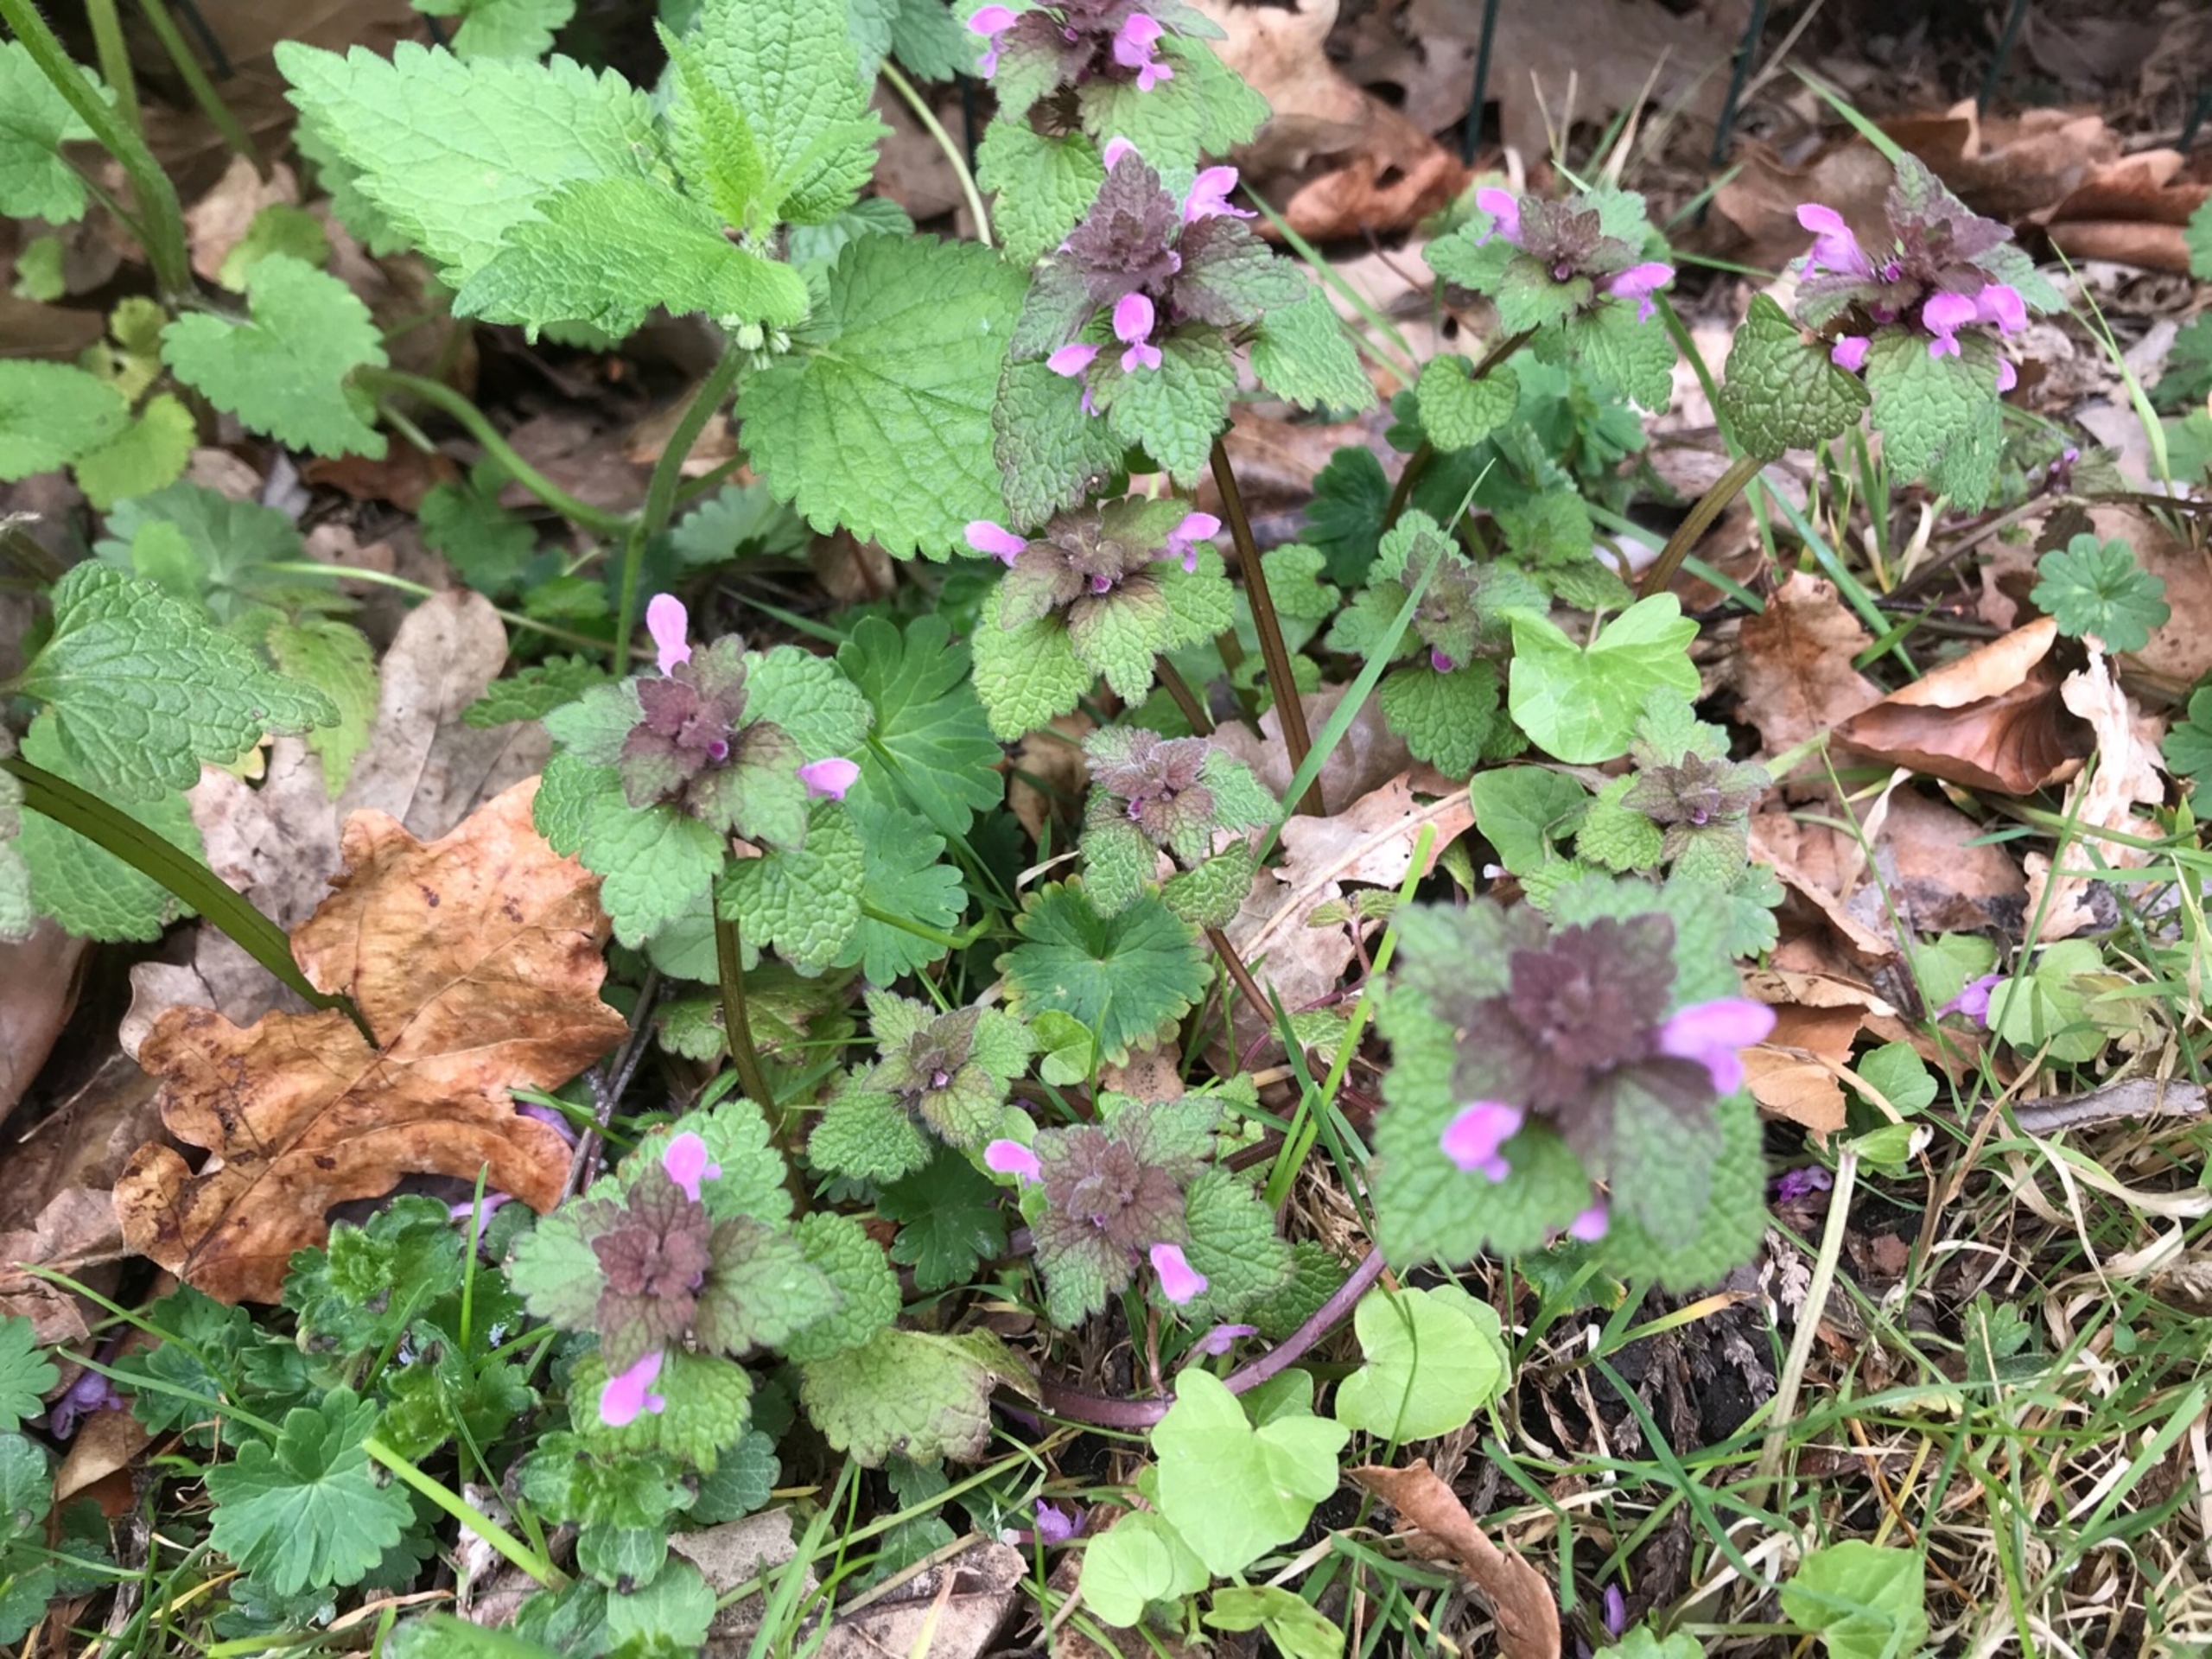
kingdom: Plantae
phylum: Tracheophyta
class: Magnoliopsida
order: Lamiales
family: Lamiaceae
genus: Lamium
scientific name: Lamium purpureum
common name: Rød tvetand
